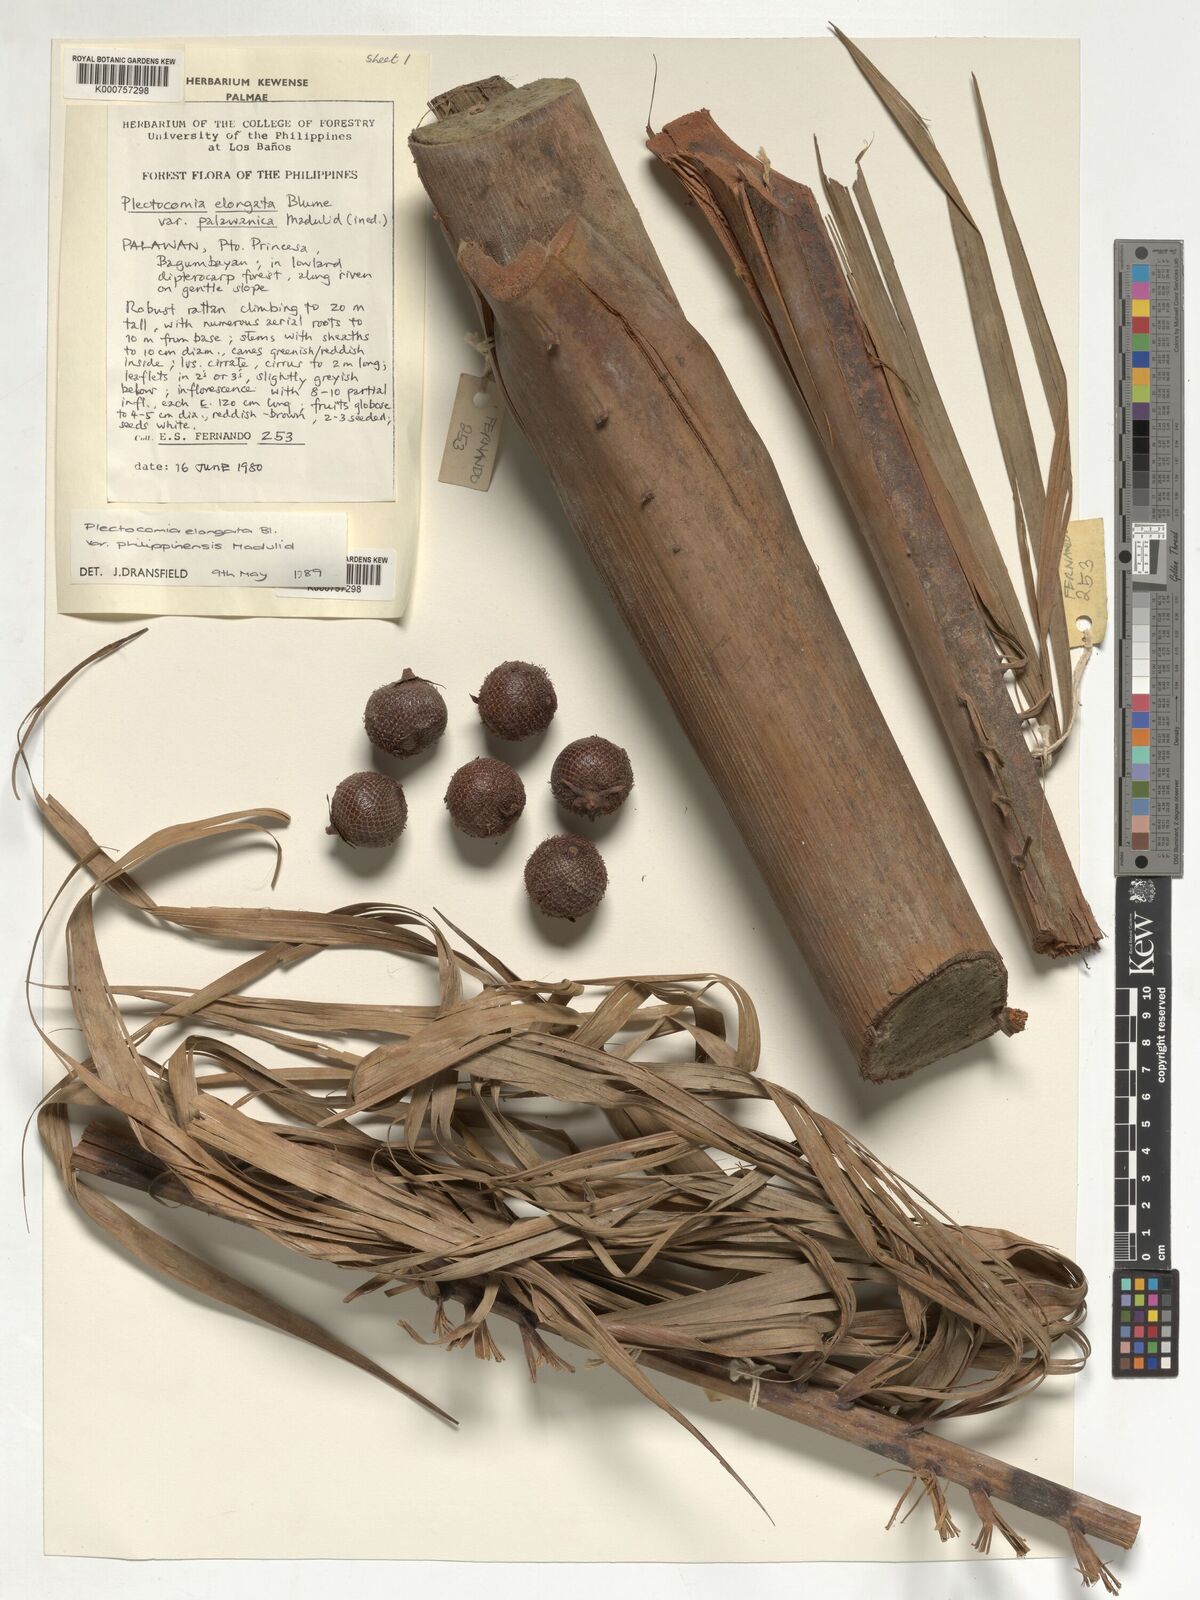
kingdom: Plantae
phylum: Tracheophyta
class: Liliopsida
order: Arecales
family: Arecaceae
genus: Plectocomia
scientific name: Plectocomia elongata
